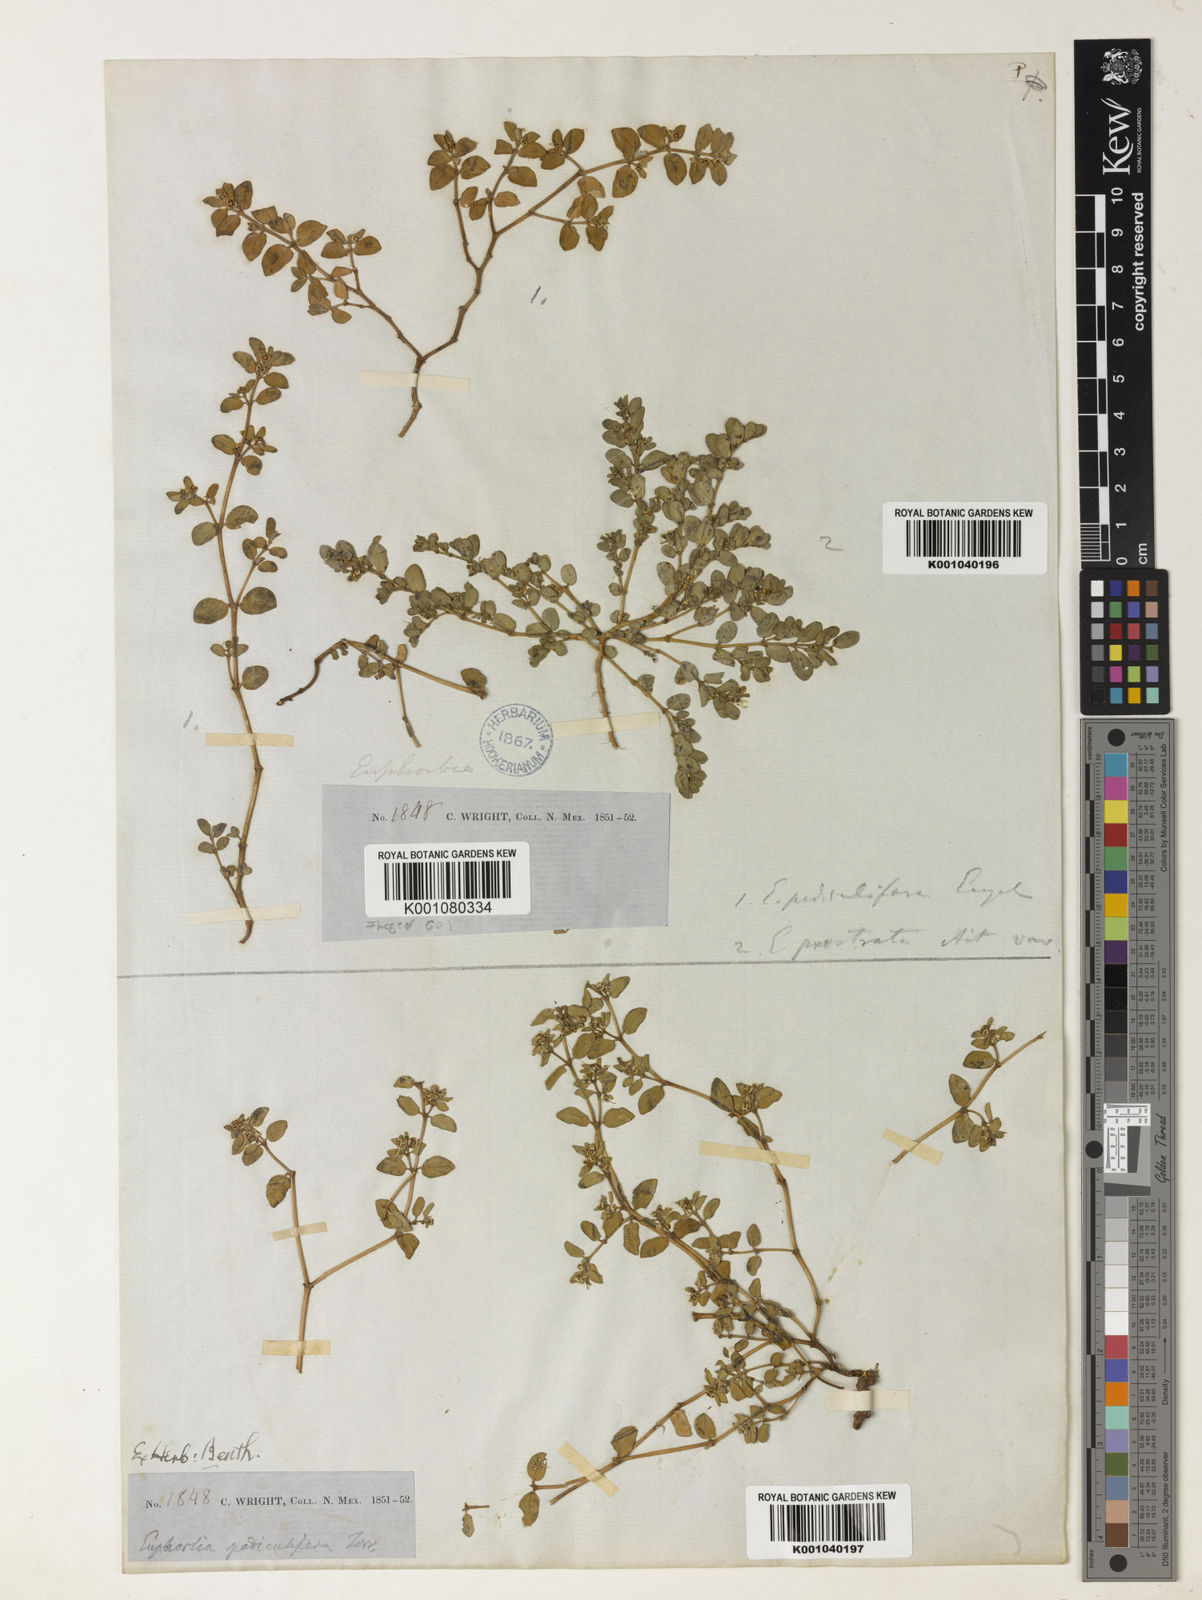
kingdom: Plantae
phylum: Tracheophyta
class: Magnoliopsida
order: Malpighiales
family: Euphorbiaceae
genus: Euphorbia
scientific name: Euphorbia pediculifera
